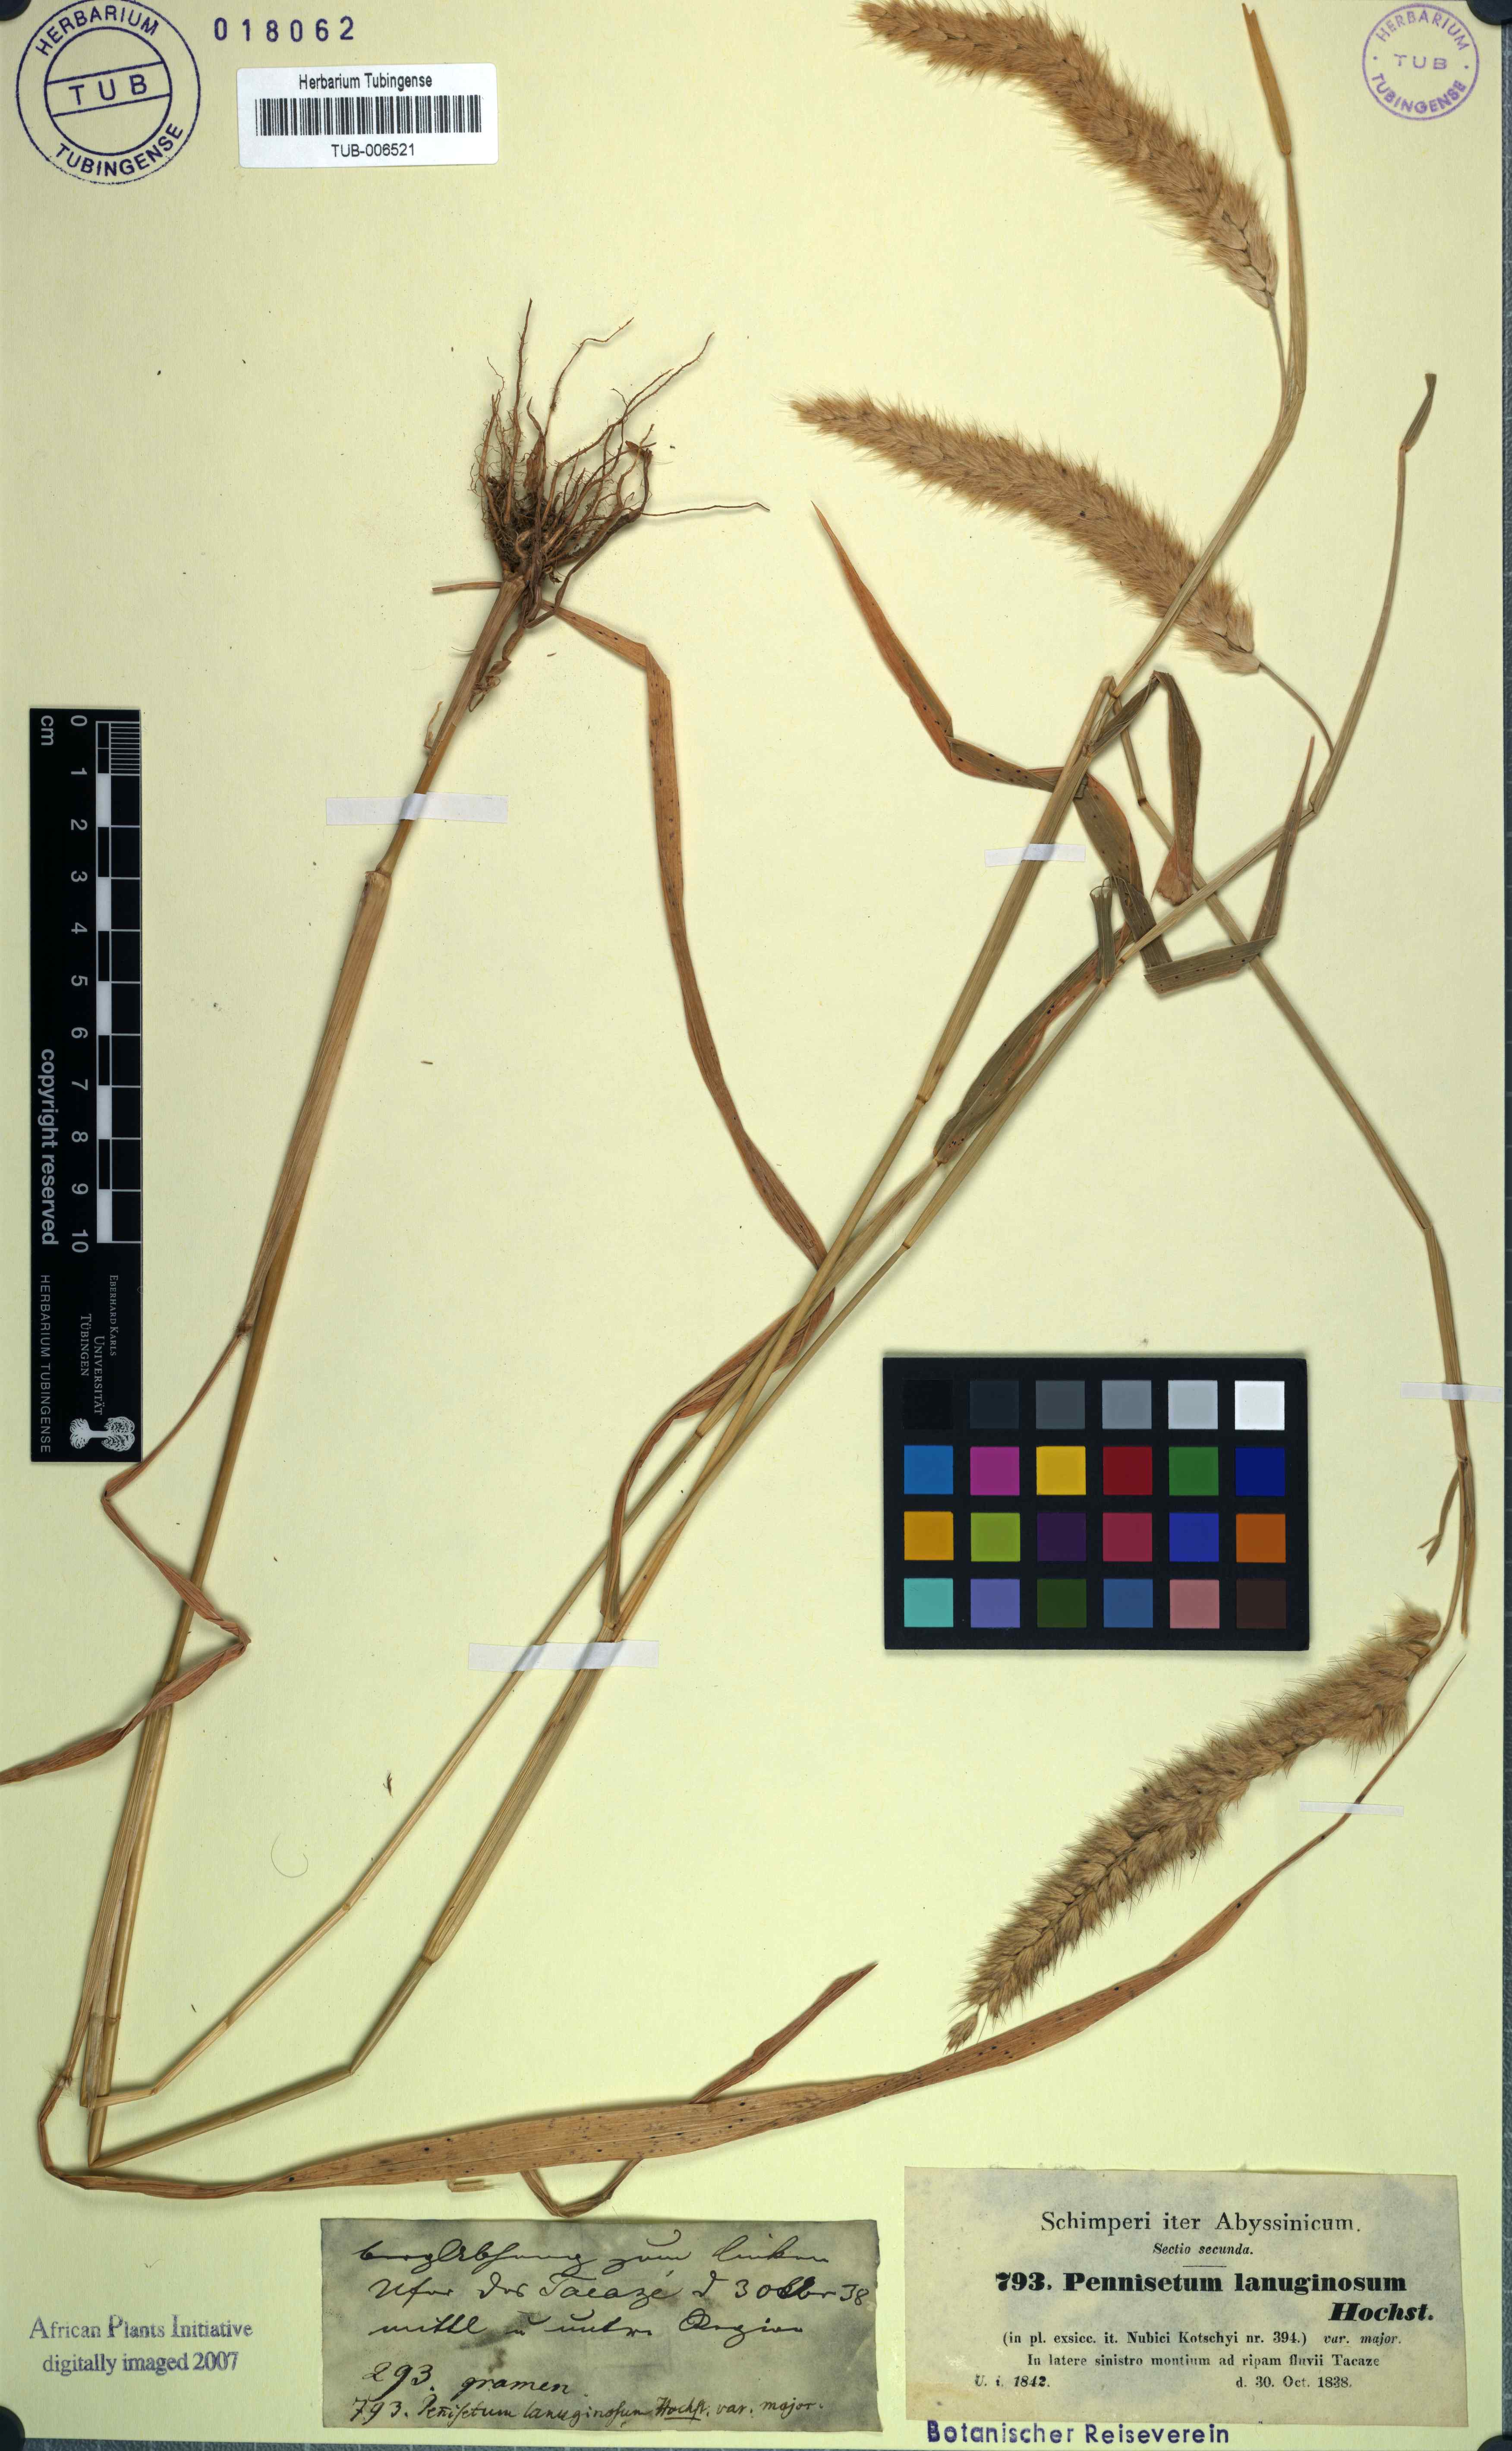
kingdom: Plantae
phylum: Tracheophyta
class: Liliopsida
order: Poales
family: Poaceae
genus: Cenchrus
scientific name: Cenchrus pedicellatus
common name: Hairy fountain grass
